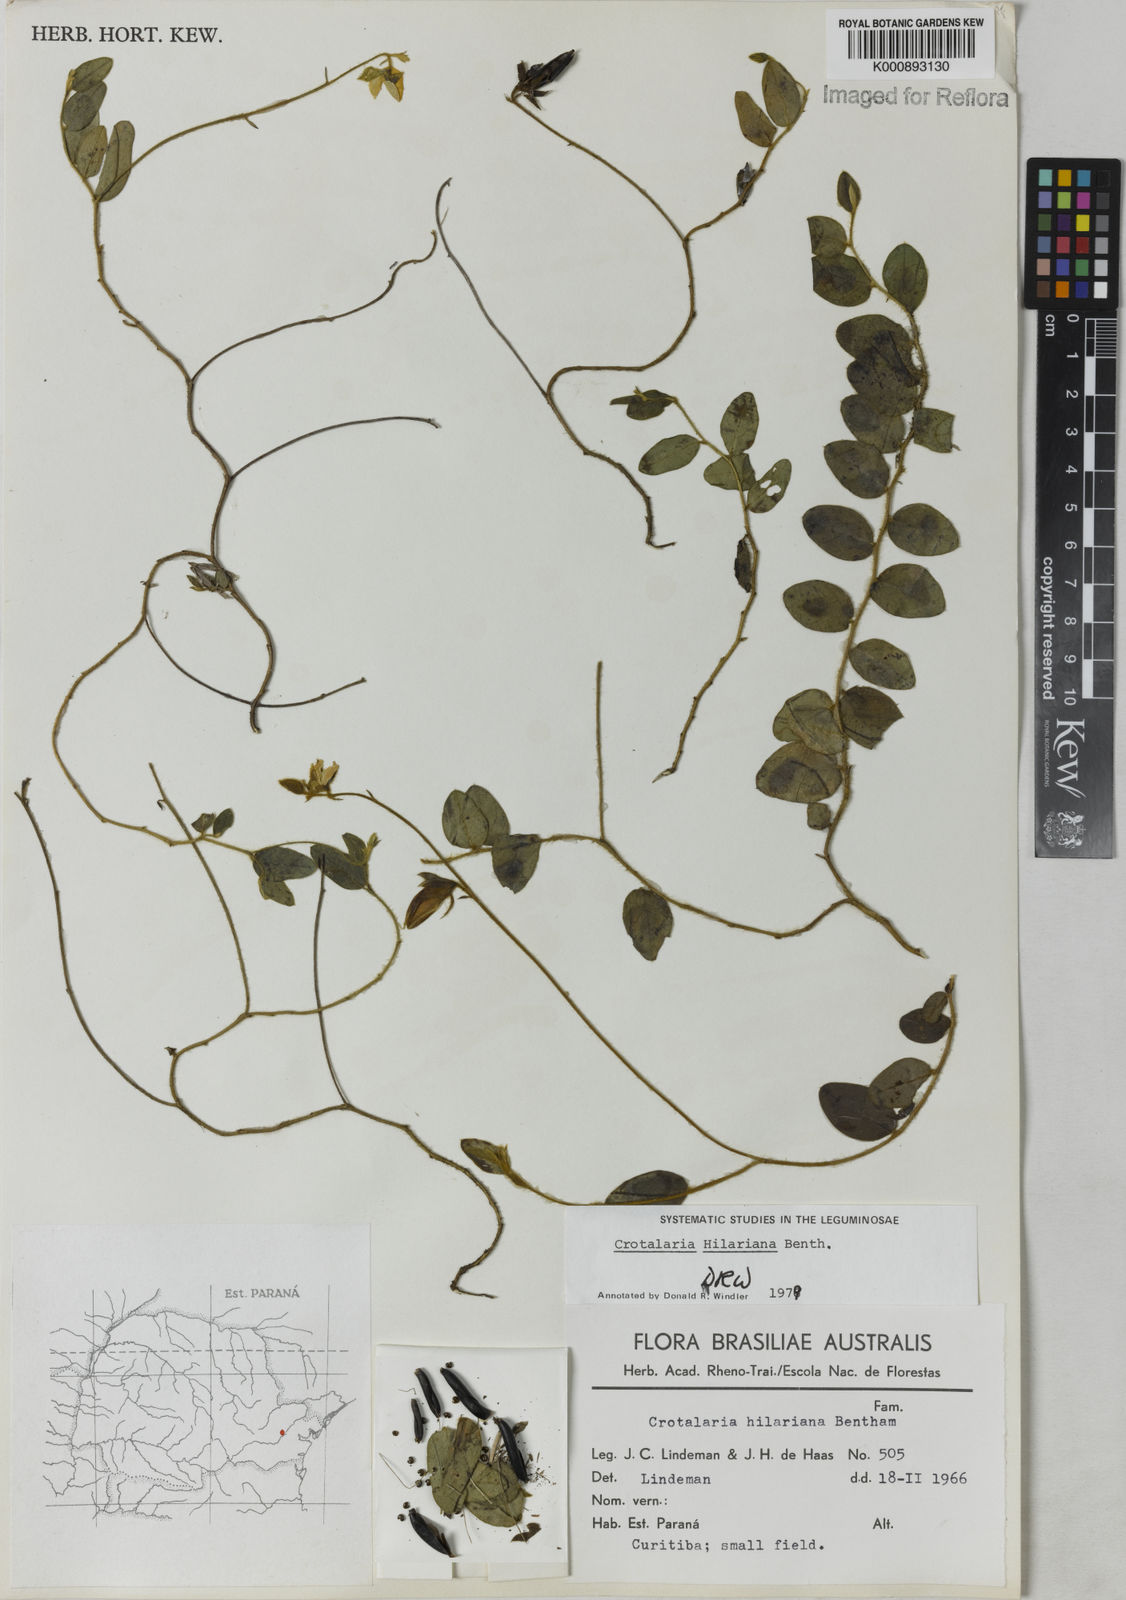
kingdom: Plantae
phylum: Tracheophyta
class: Magnoliopsida
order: Fabales
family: Fabaceae
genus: Crotalaria
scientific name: Crotalaria hilariana
